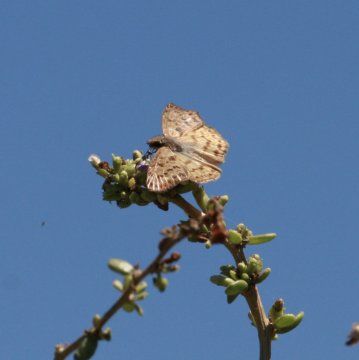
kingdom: Animalia
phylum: Arthropoda
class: Insecta
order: Lepidoptera
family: Hesperiidae
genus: Timochares
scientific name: Timochares ruptifasciata
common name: Brown-banded Skipper
